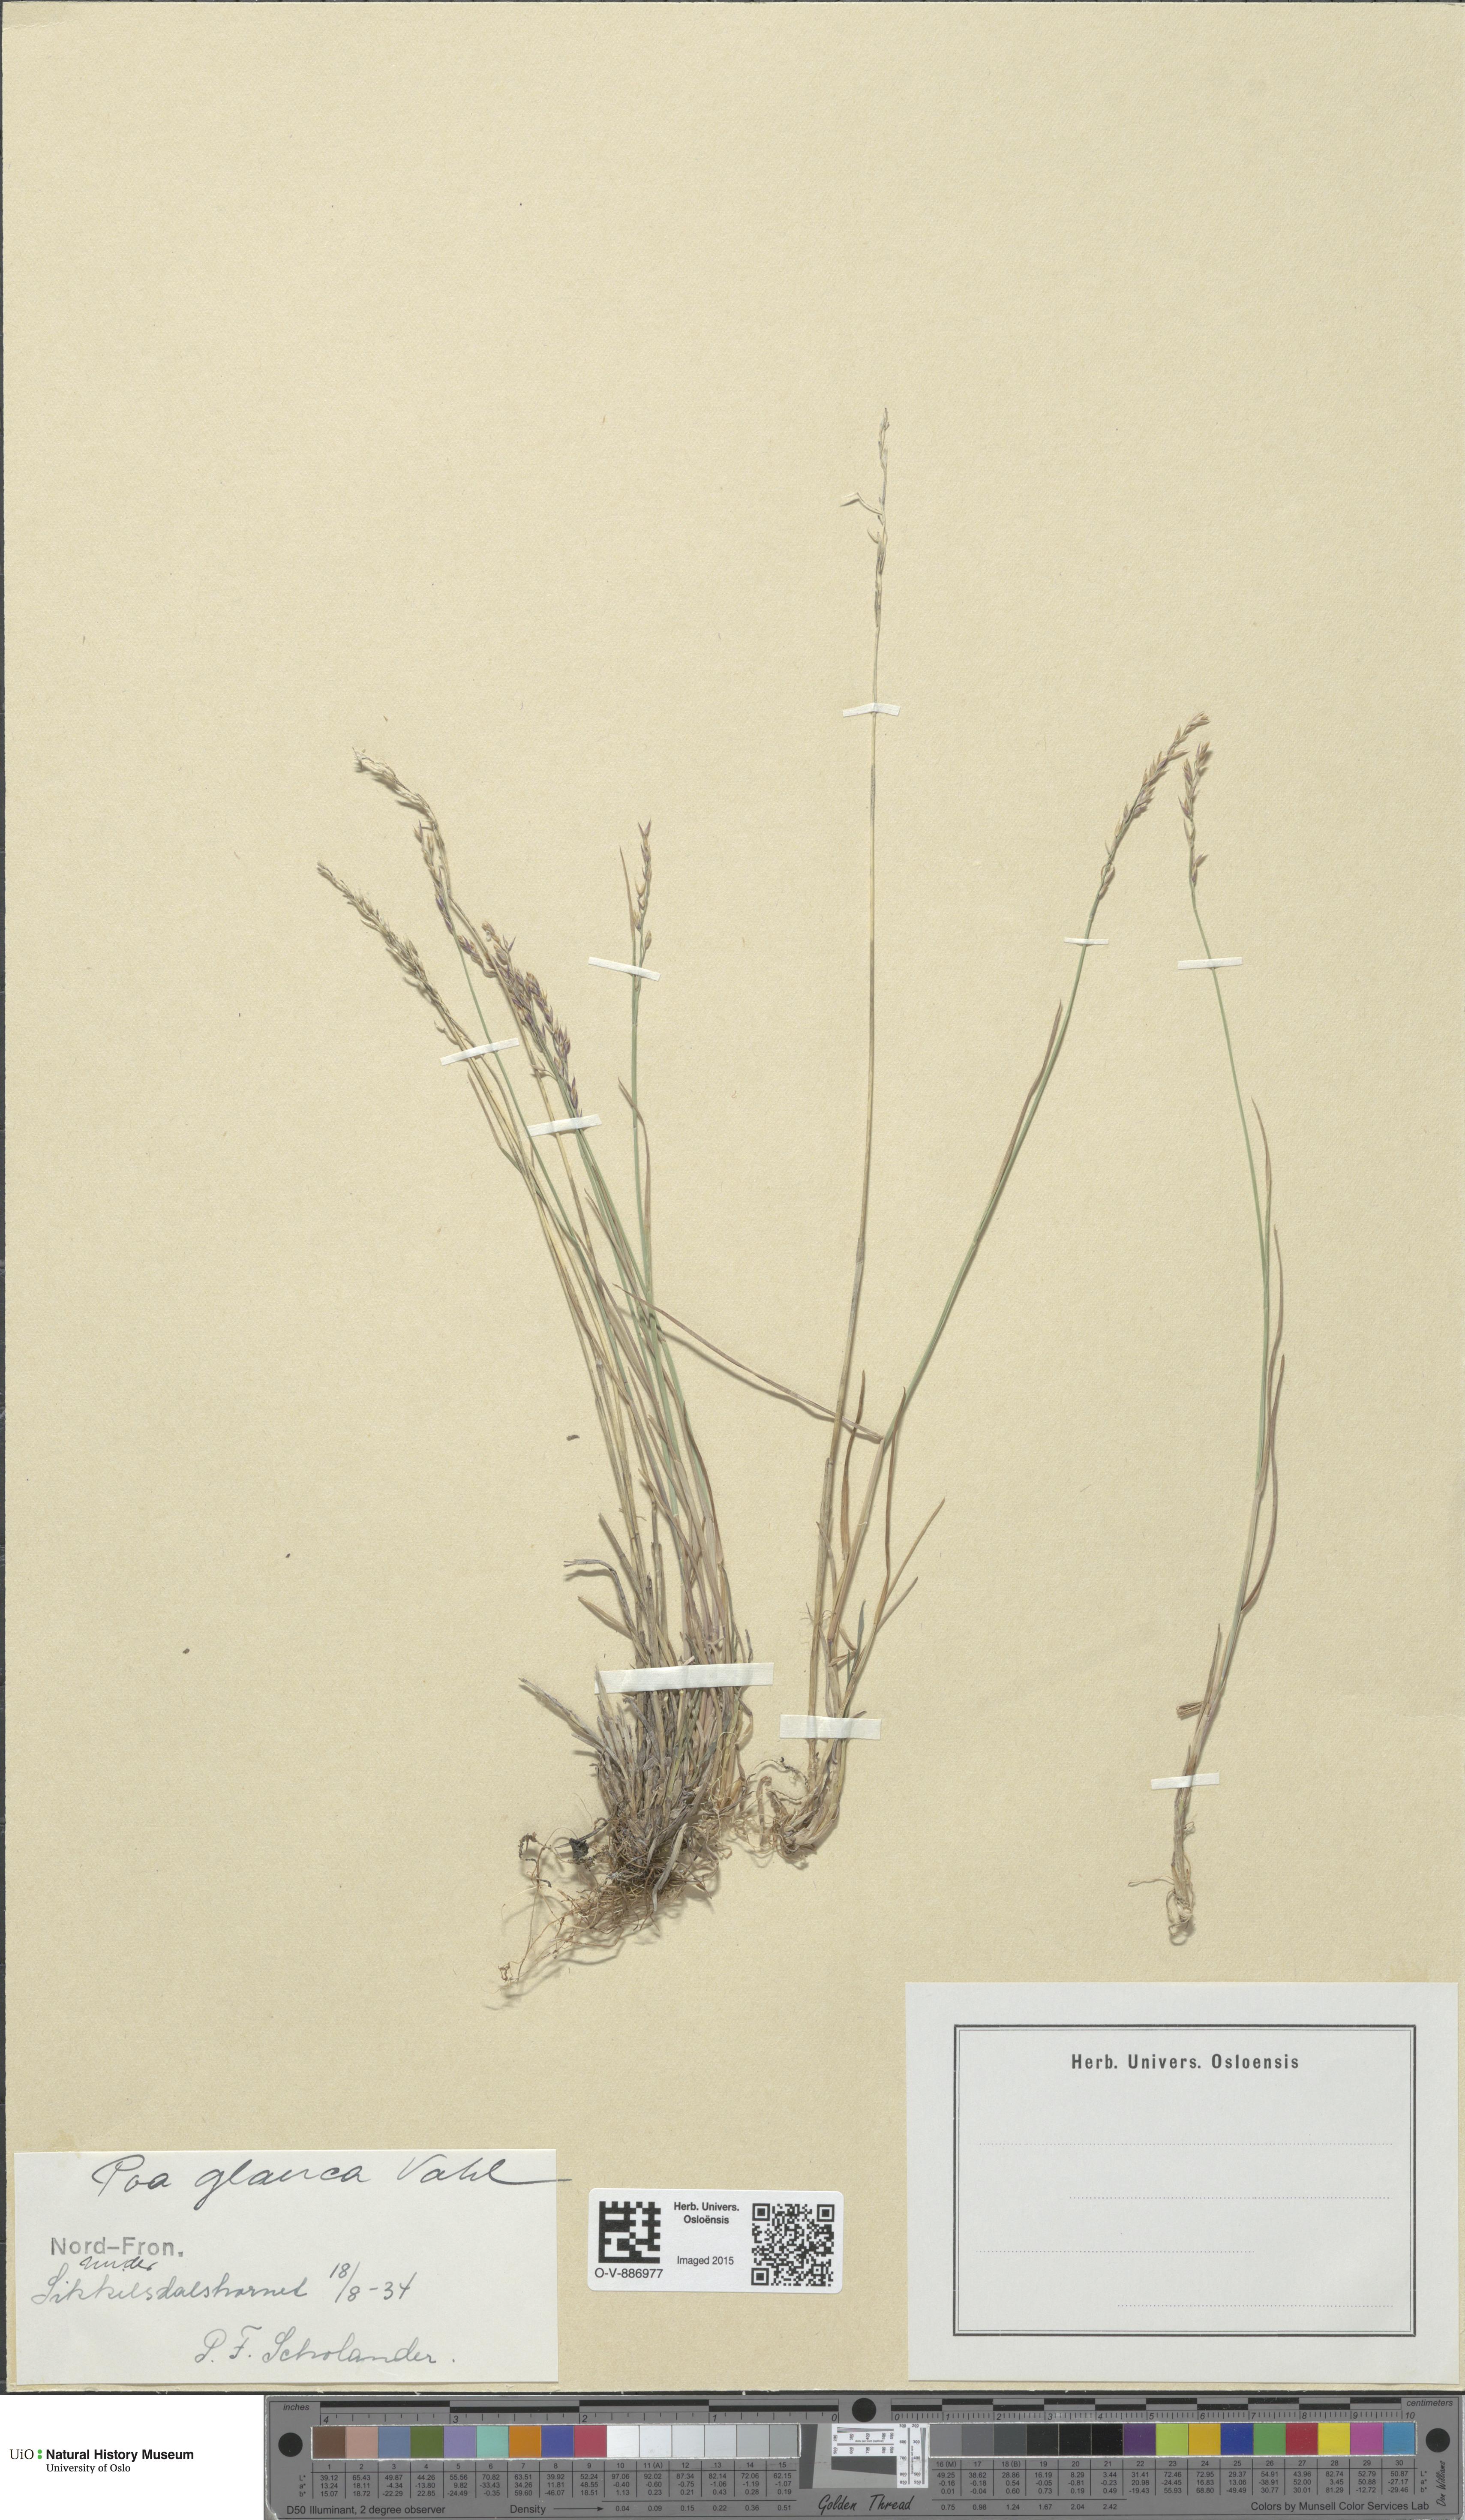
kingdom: Plantae
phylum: Tracheophyta
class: Liliopsida
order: Poales
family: Poaceae
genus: Poa
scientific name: Poa glauca
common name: Glaucous bluegrass
